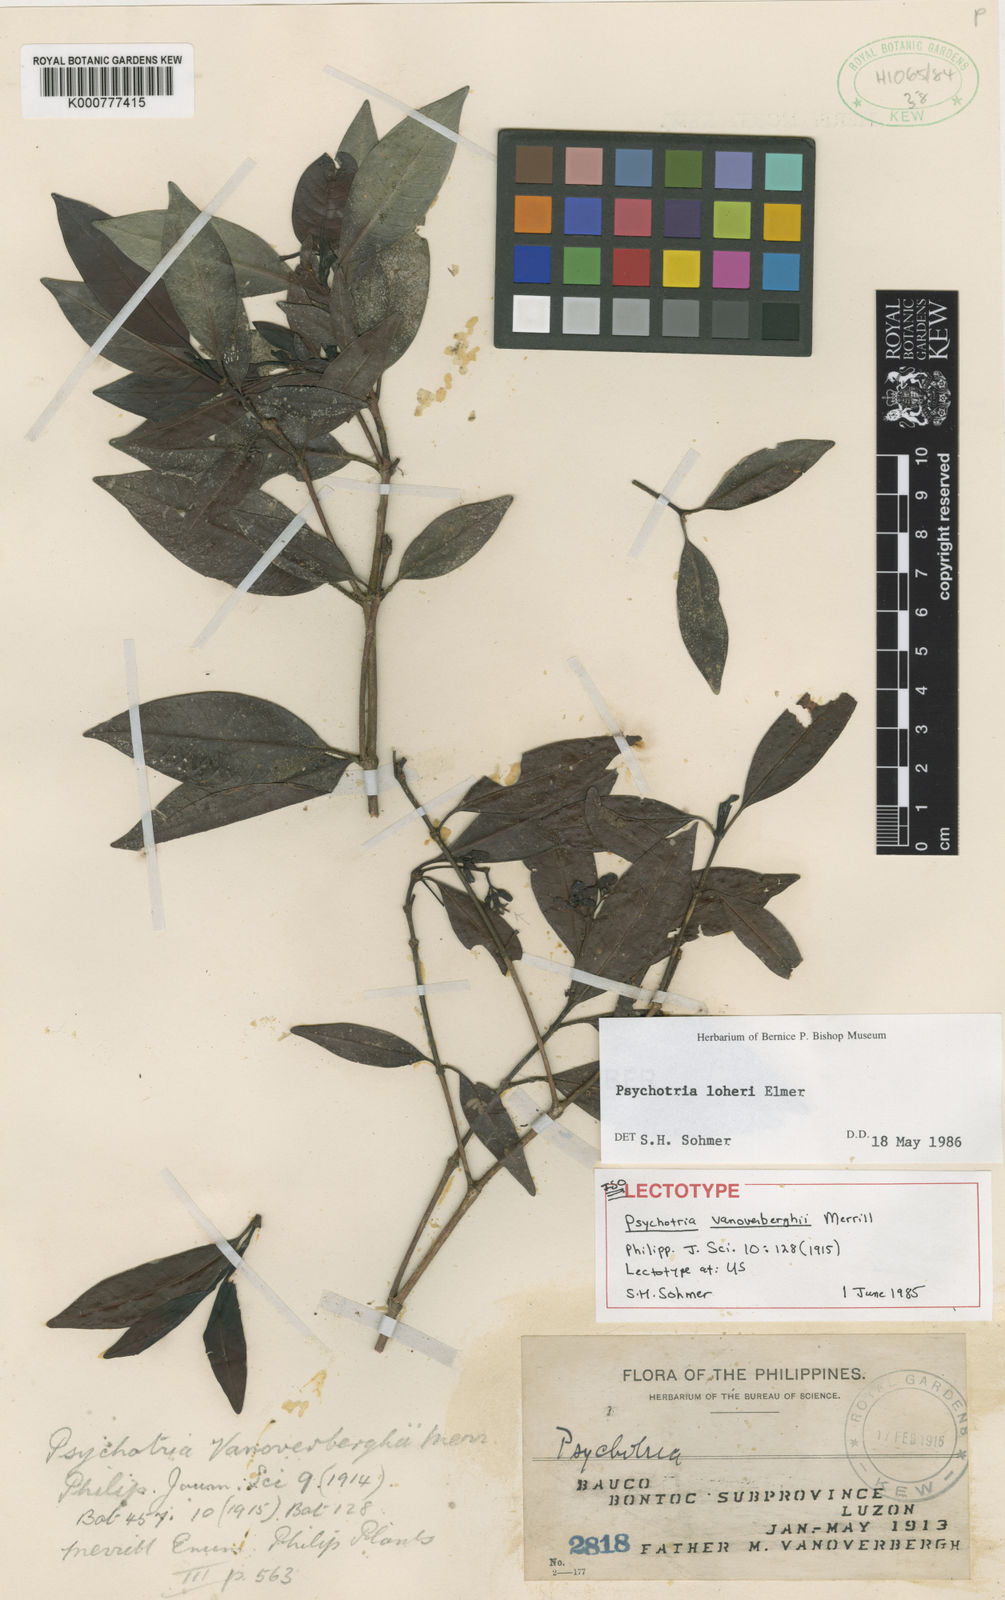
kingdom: Plantae
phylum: Tracheophyta
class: Magnoliopsida
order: Gentianales
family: Rubiaceae
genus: Psychotria
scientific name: Psychotria loheri
